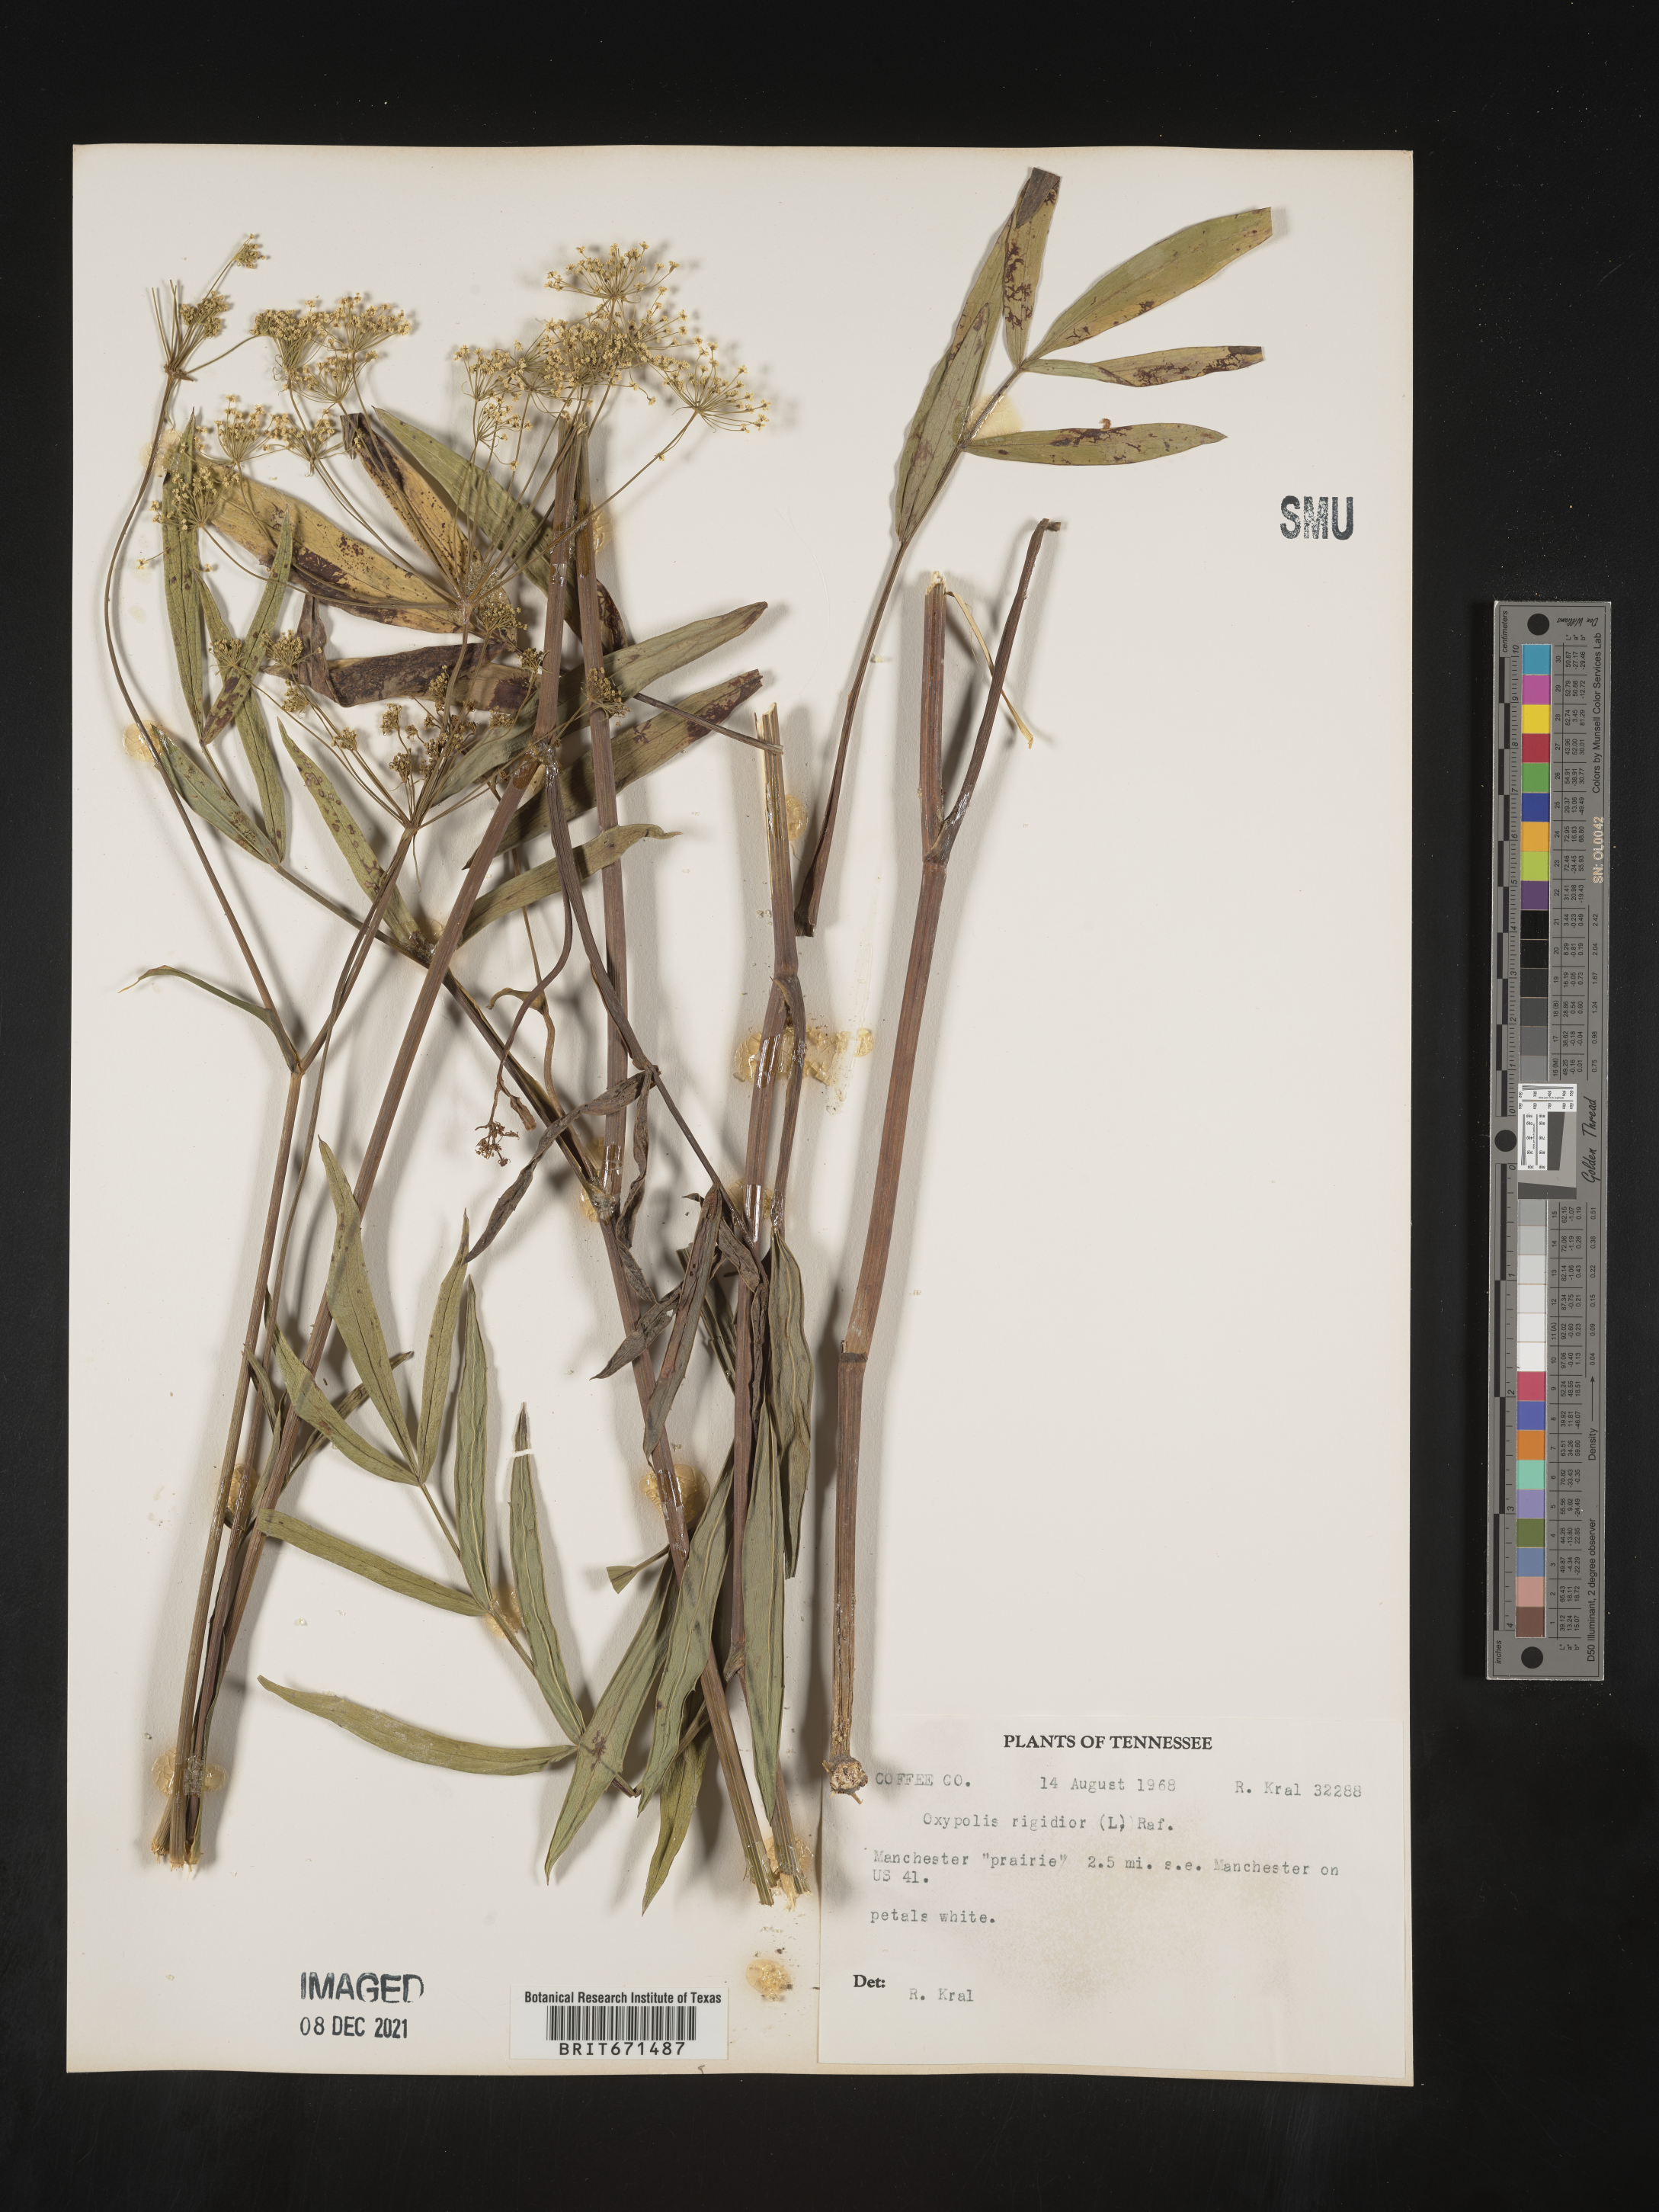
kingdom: Plantae
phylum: Tracheophyta
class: Magnoliopsida
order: Apiales
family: Apiaceae
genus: Oxypolis
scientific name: Oxypolis rigidior
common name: Cowbane
